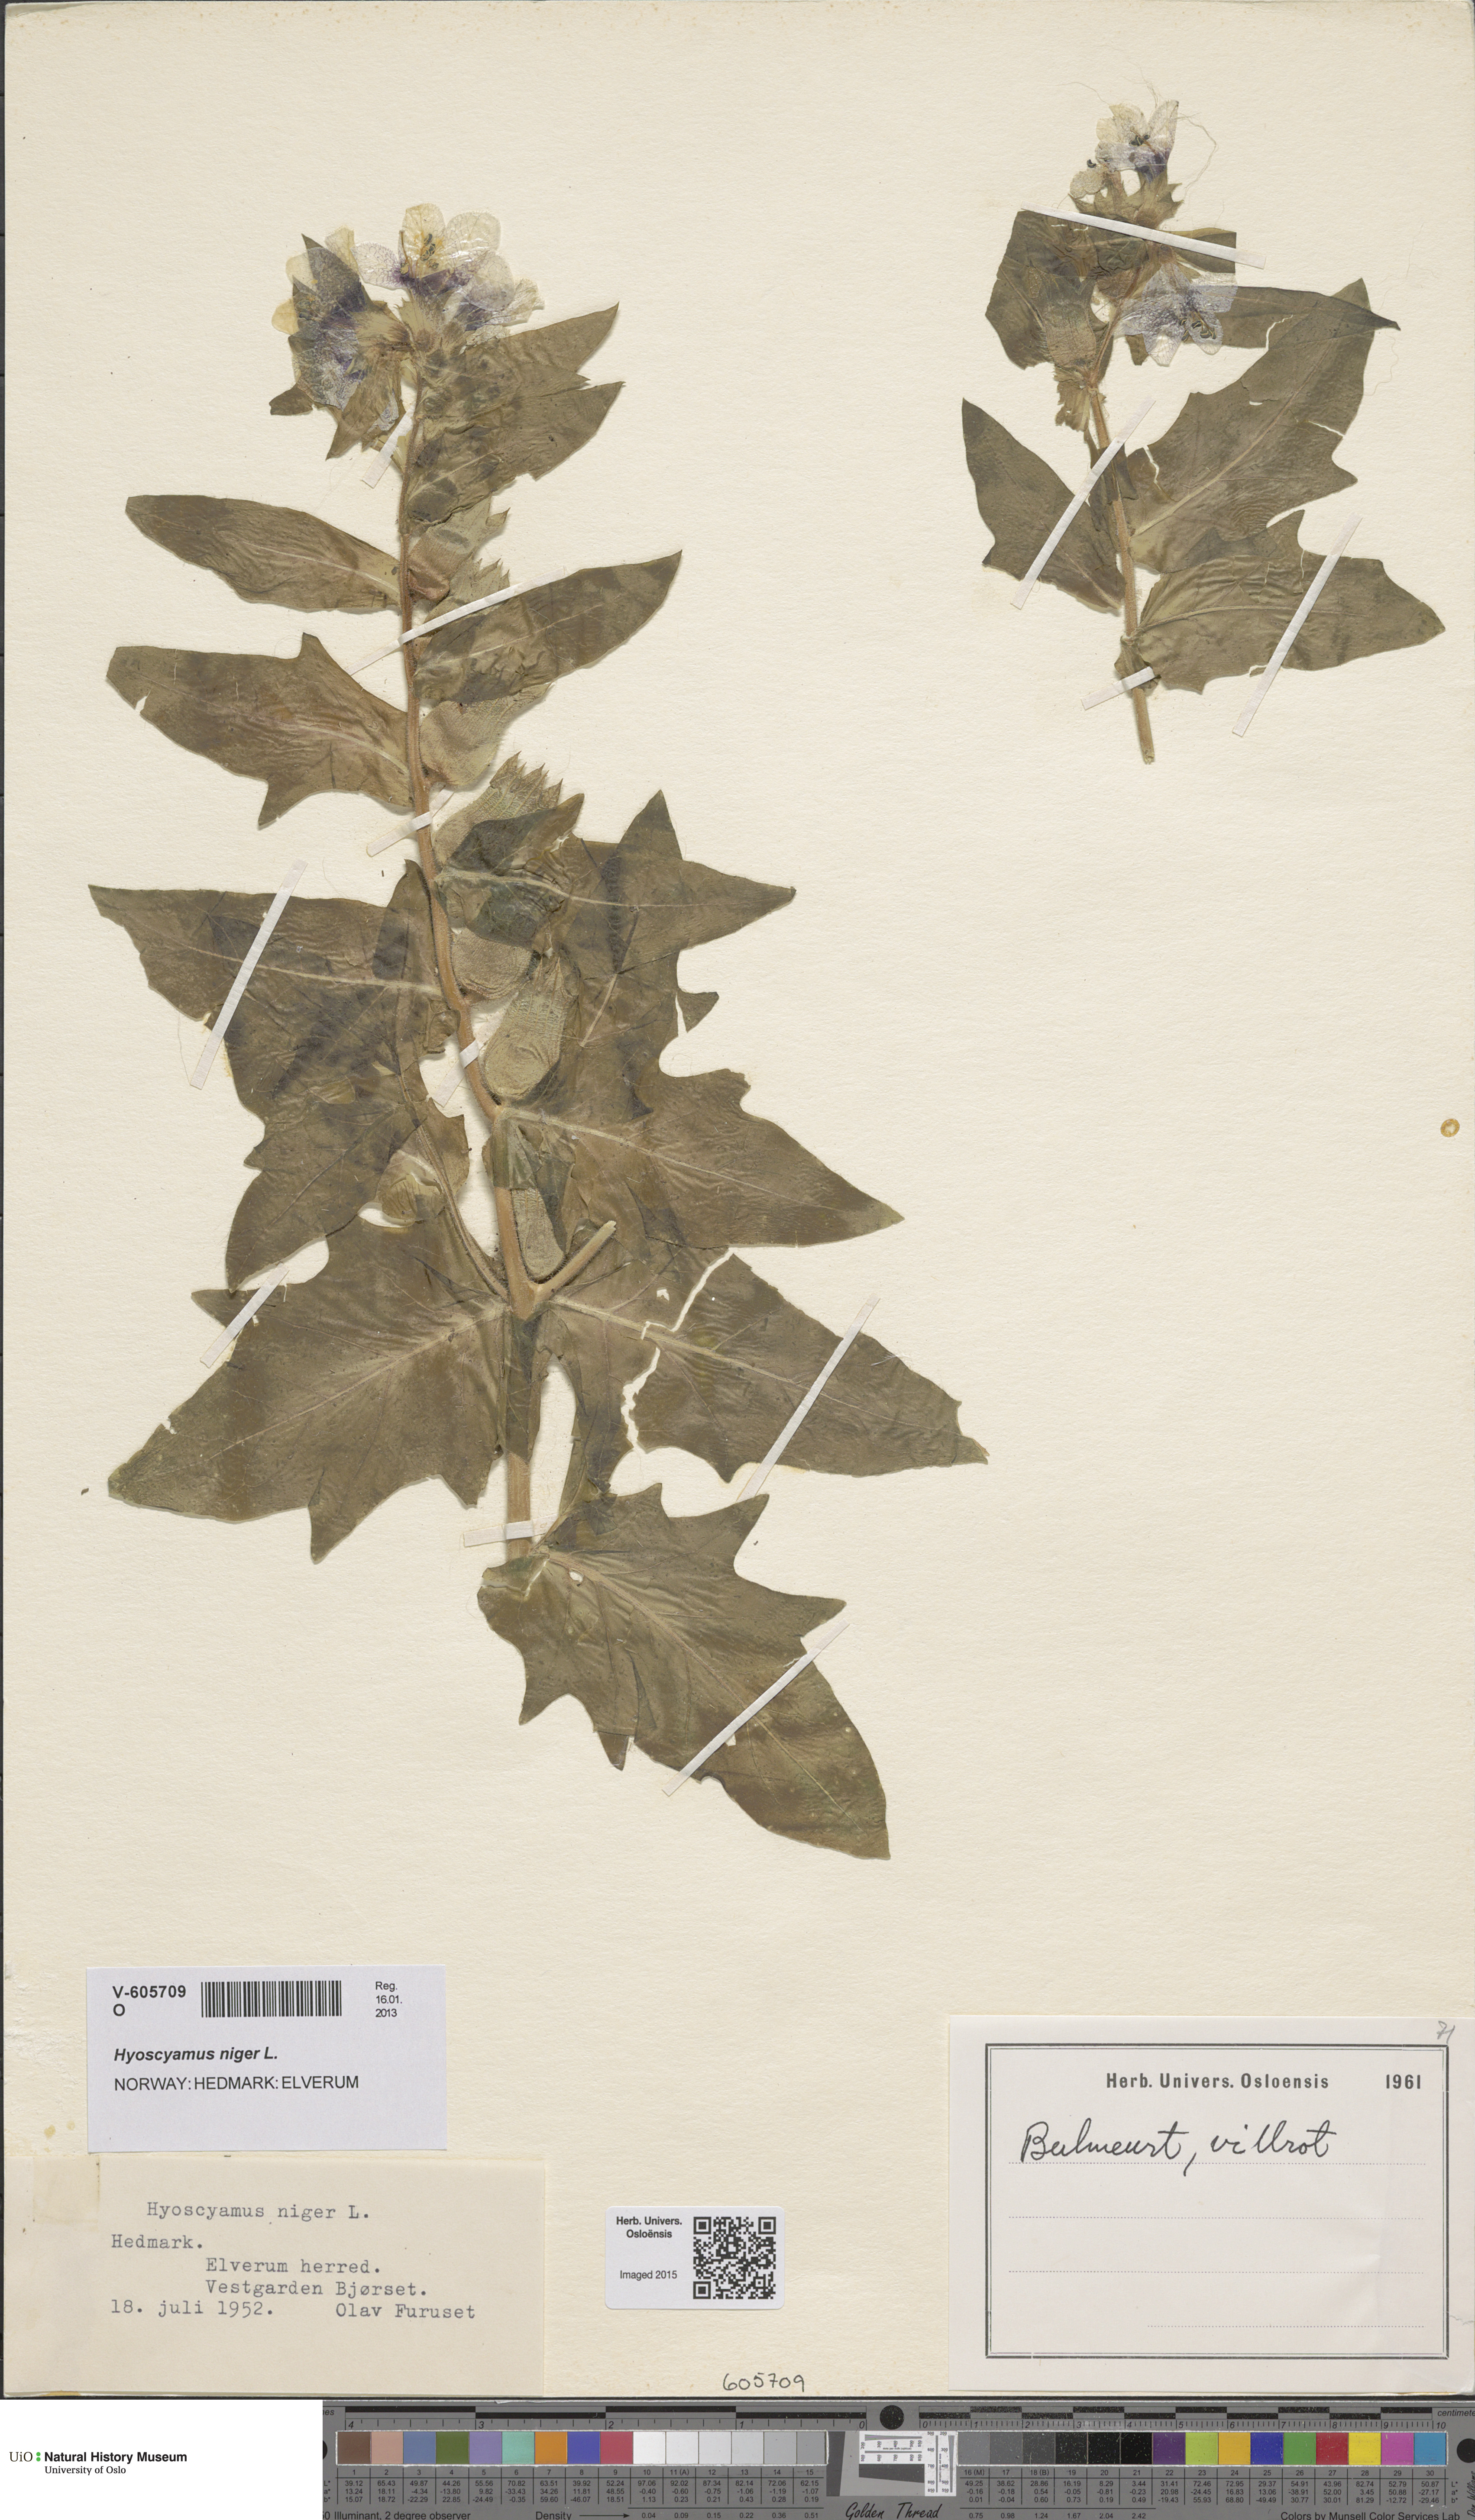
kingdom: Plantae
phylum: Tracheophyta
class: Magnoliopsida
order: Solanales
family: Solanaceae
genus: Hyoscyamus
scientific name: Hyoscyamus niger
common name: Henbane
